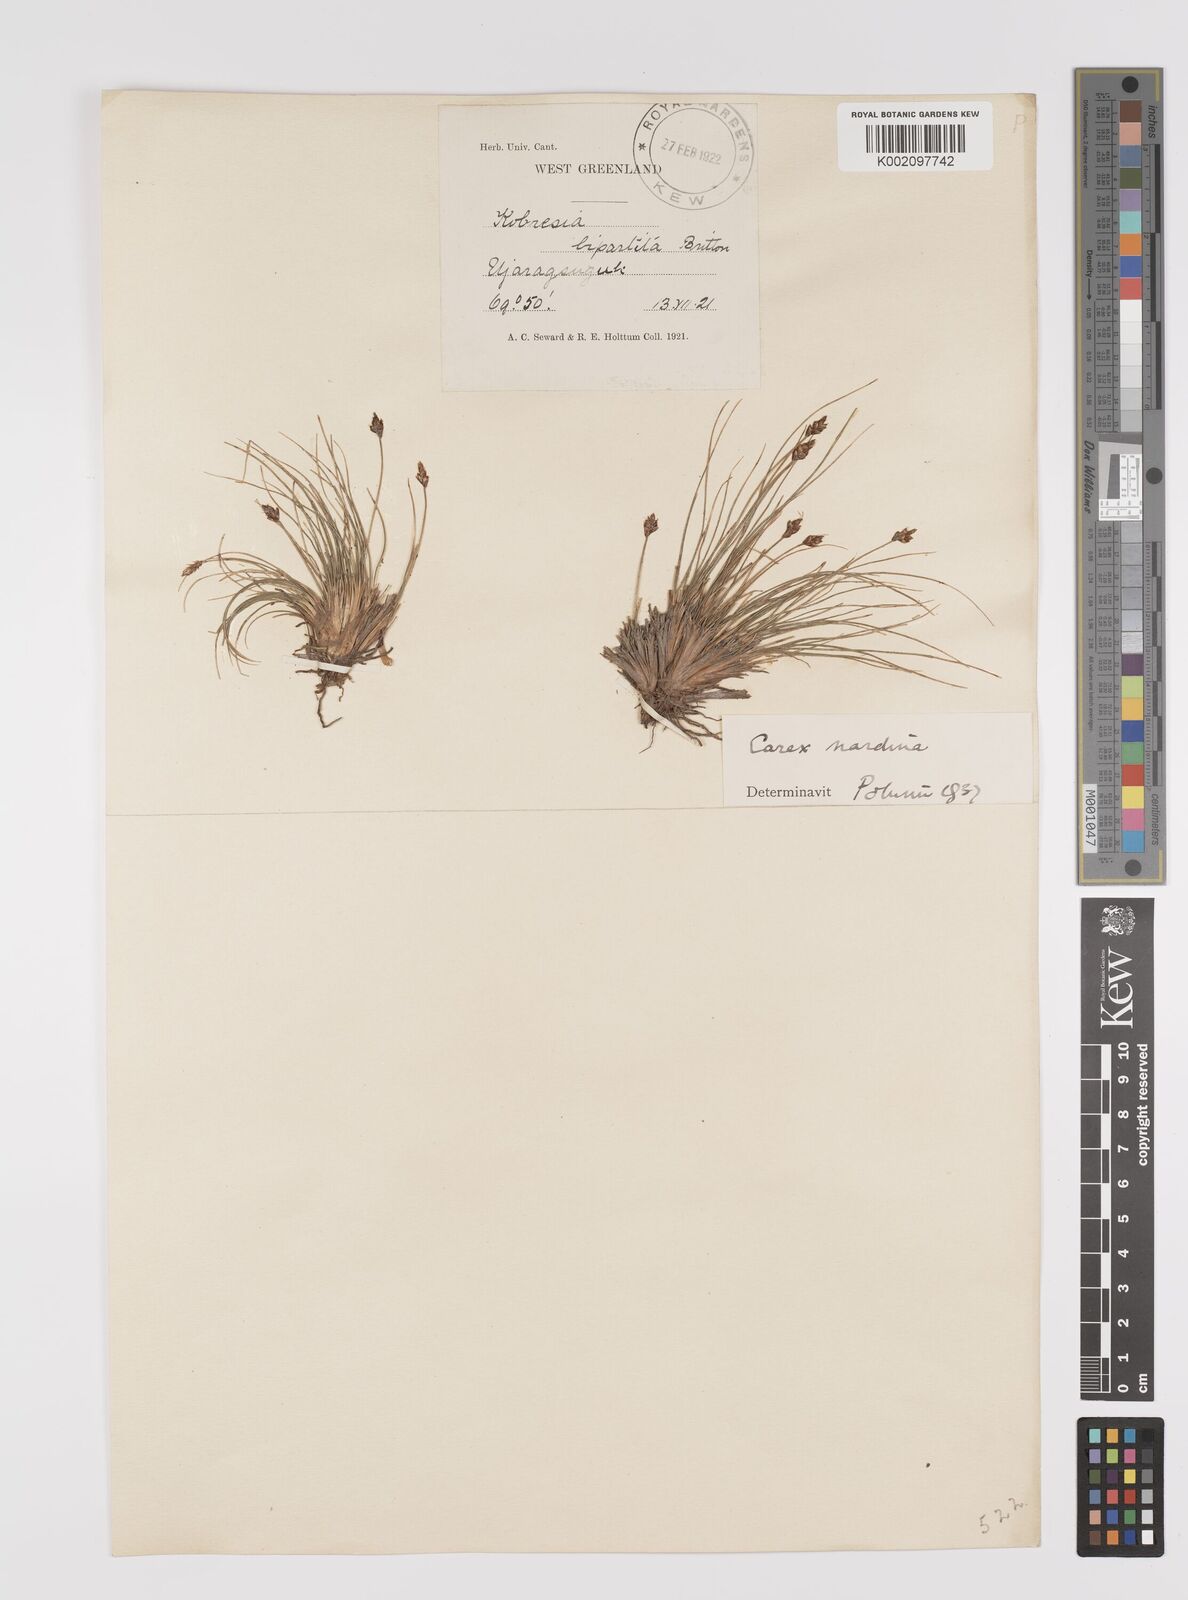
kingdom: Plantae
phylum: Tracheophyta
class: Liliopsida
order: Poales
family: Cyperaceae
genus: Carex
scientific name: Carex nardina
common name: Nard sedge
